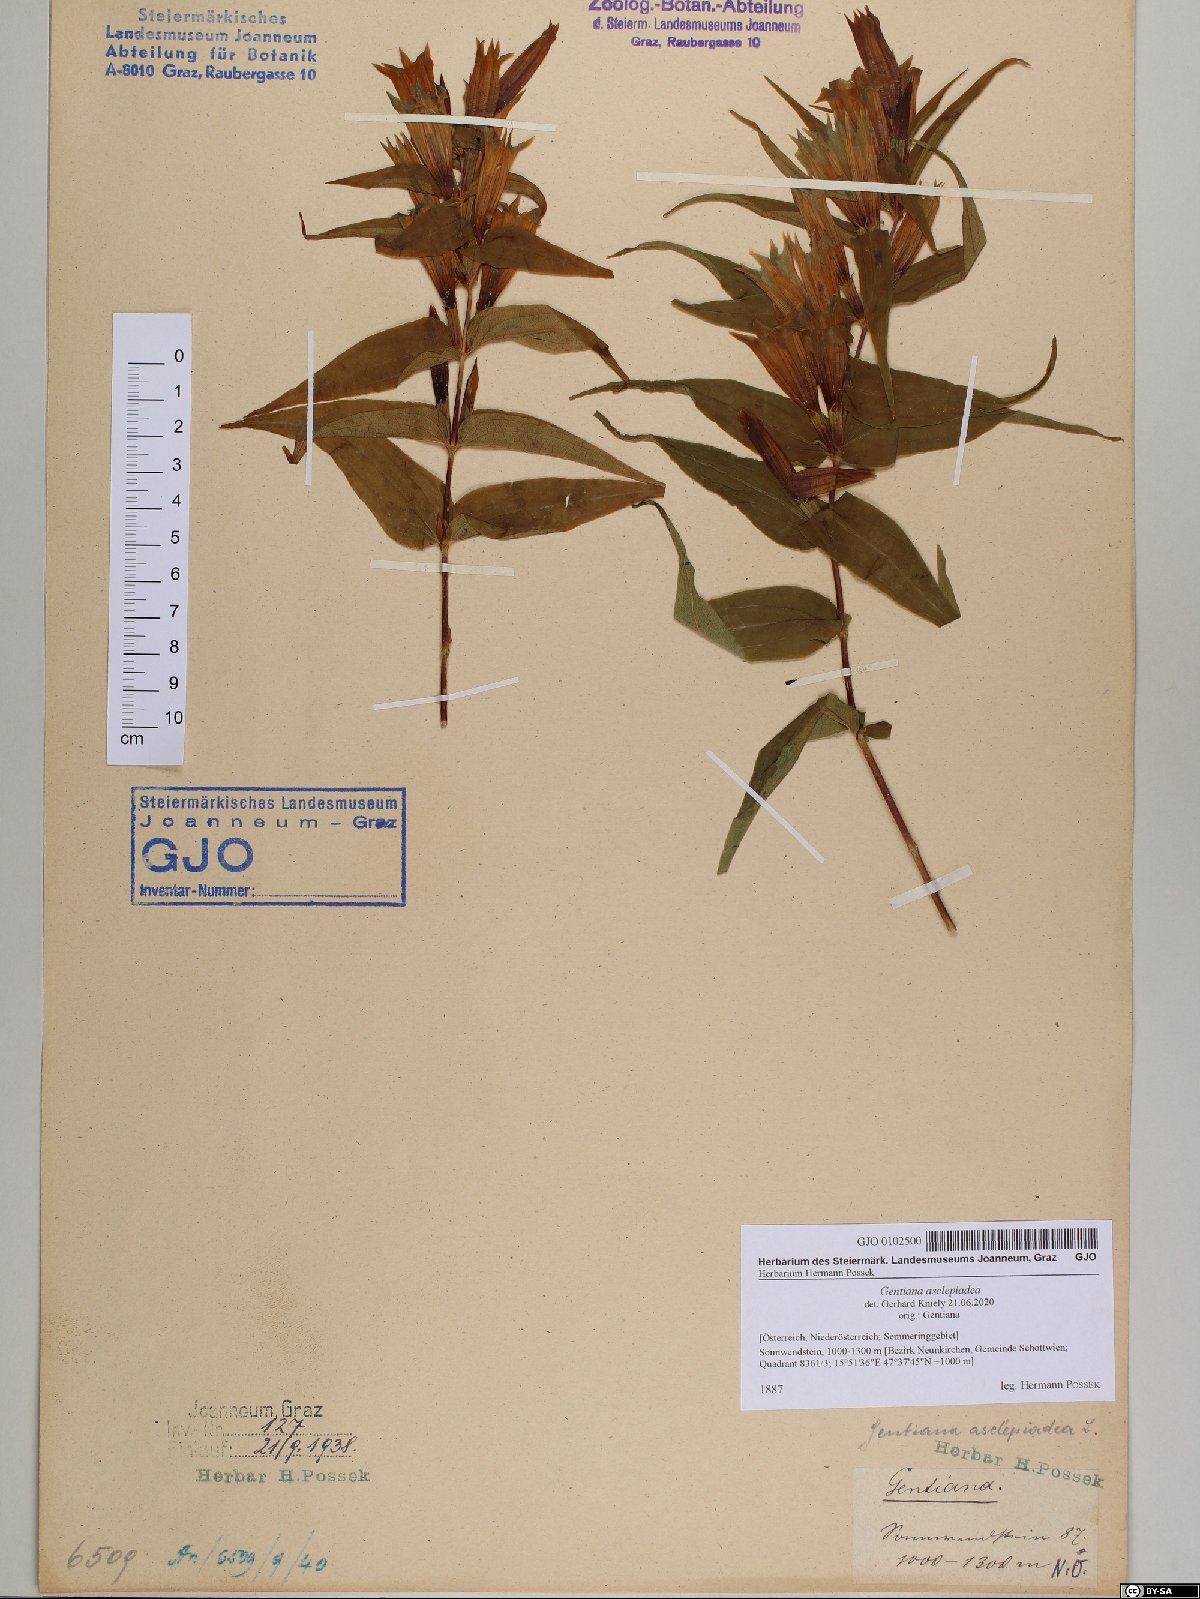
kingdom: Plantae
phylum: Tracheophyta
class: Magnoliopsida
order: Gentianales
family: Gentianaceae
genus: Gentiana
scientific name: Gentiana asclepiadea
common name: Willow gentian
